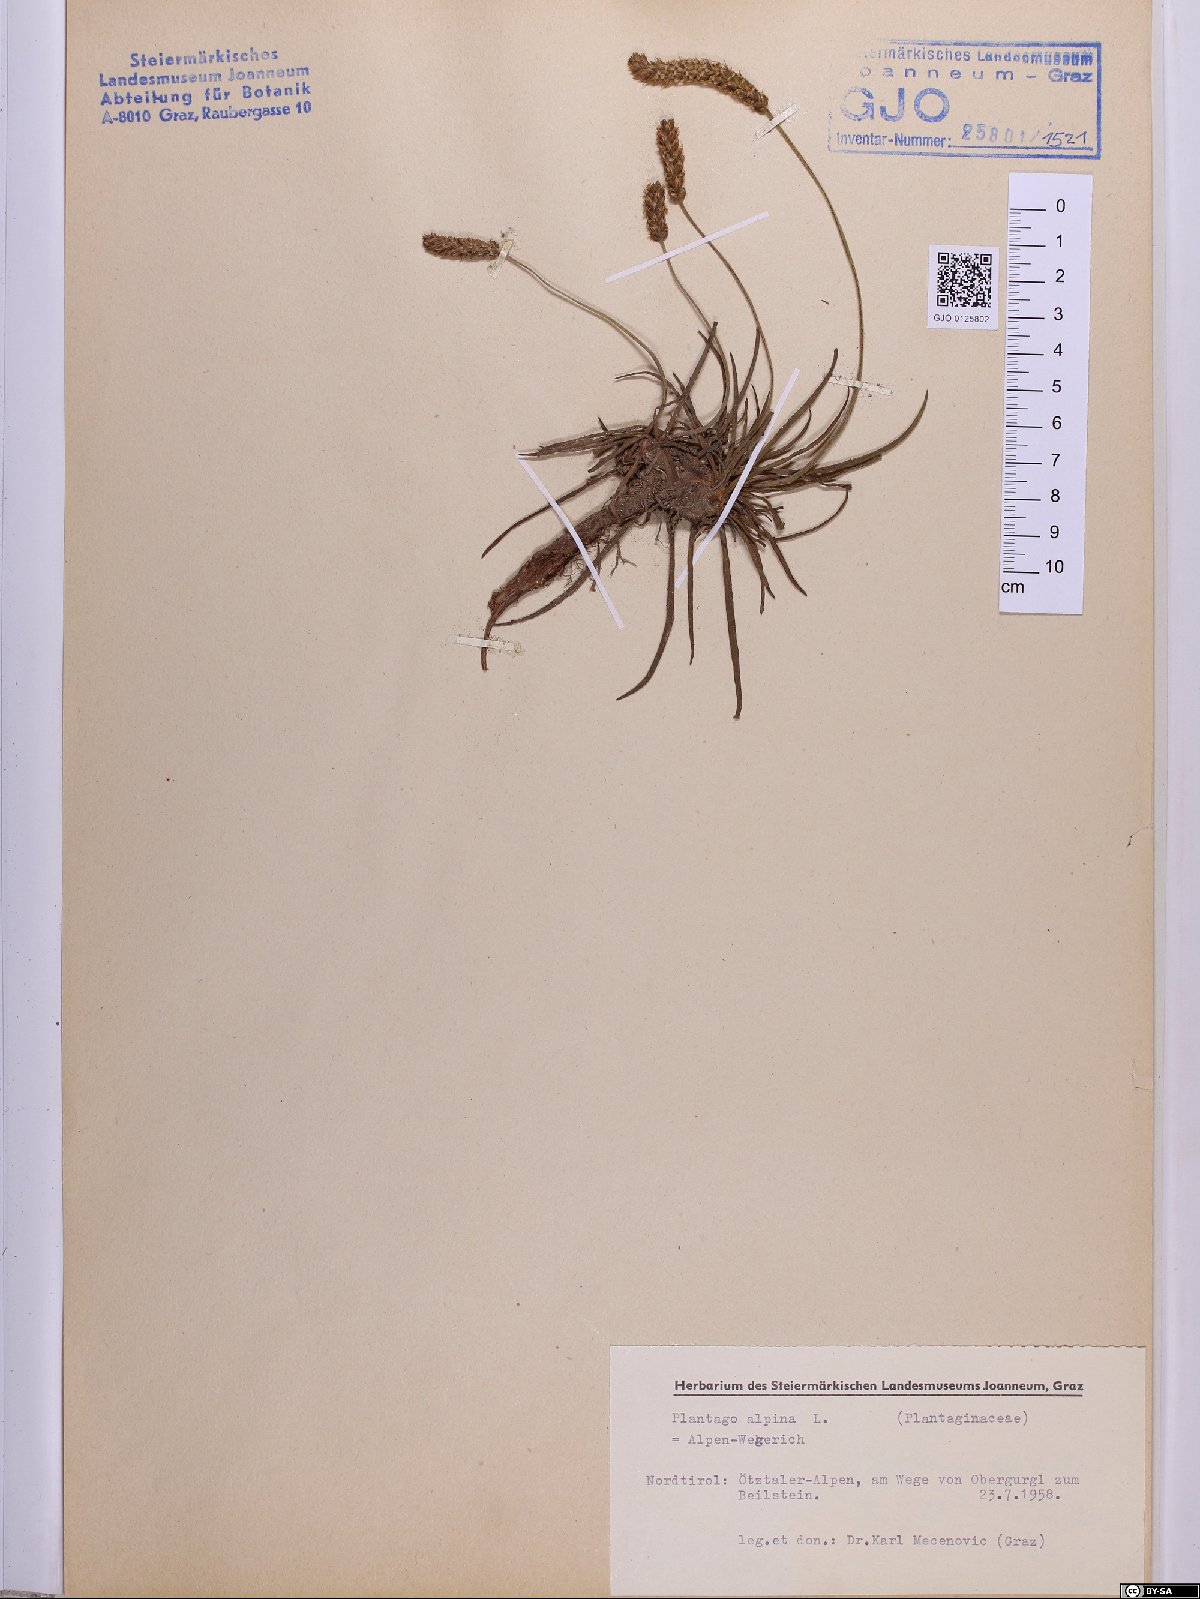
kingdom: Plantae
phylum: Tracheophyta
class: Magnoliopsida
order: Lamiales
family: Plantaginaceae
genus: Plantago
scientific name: Plantago alpina
